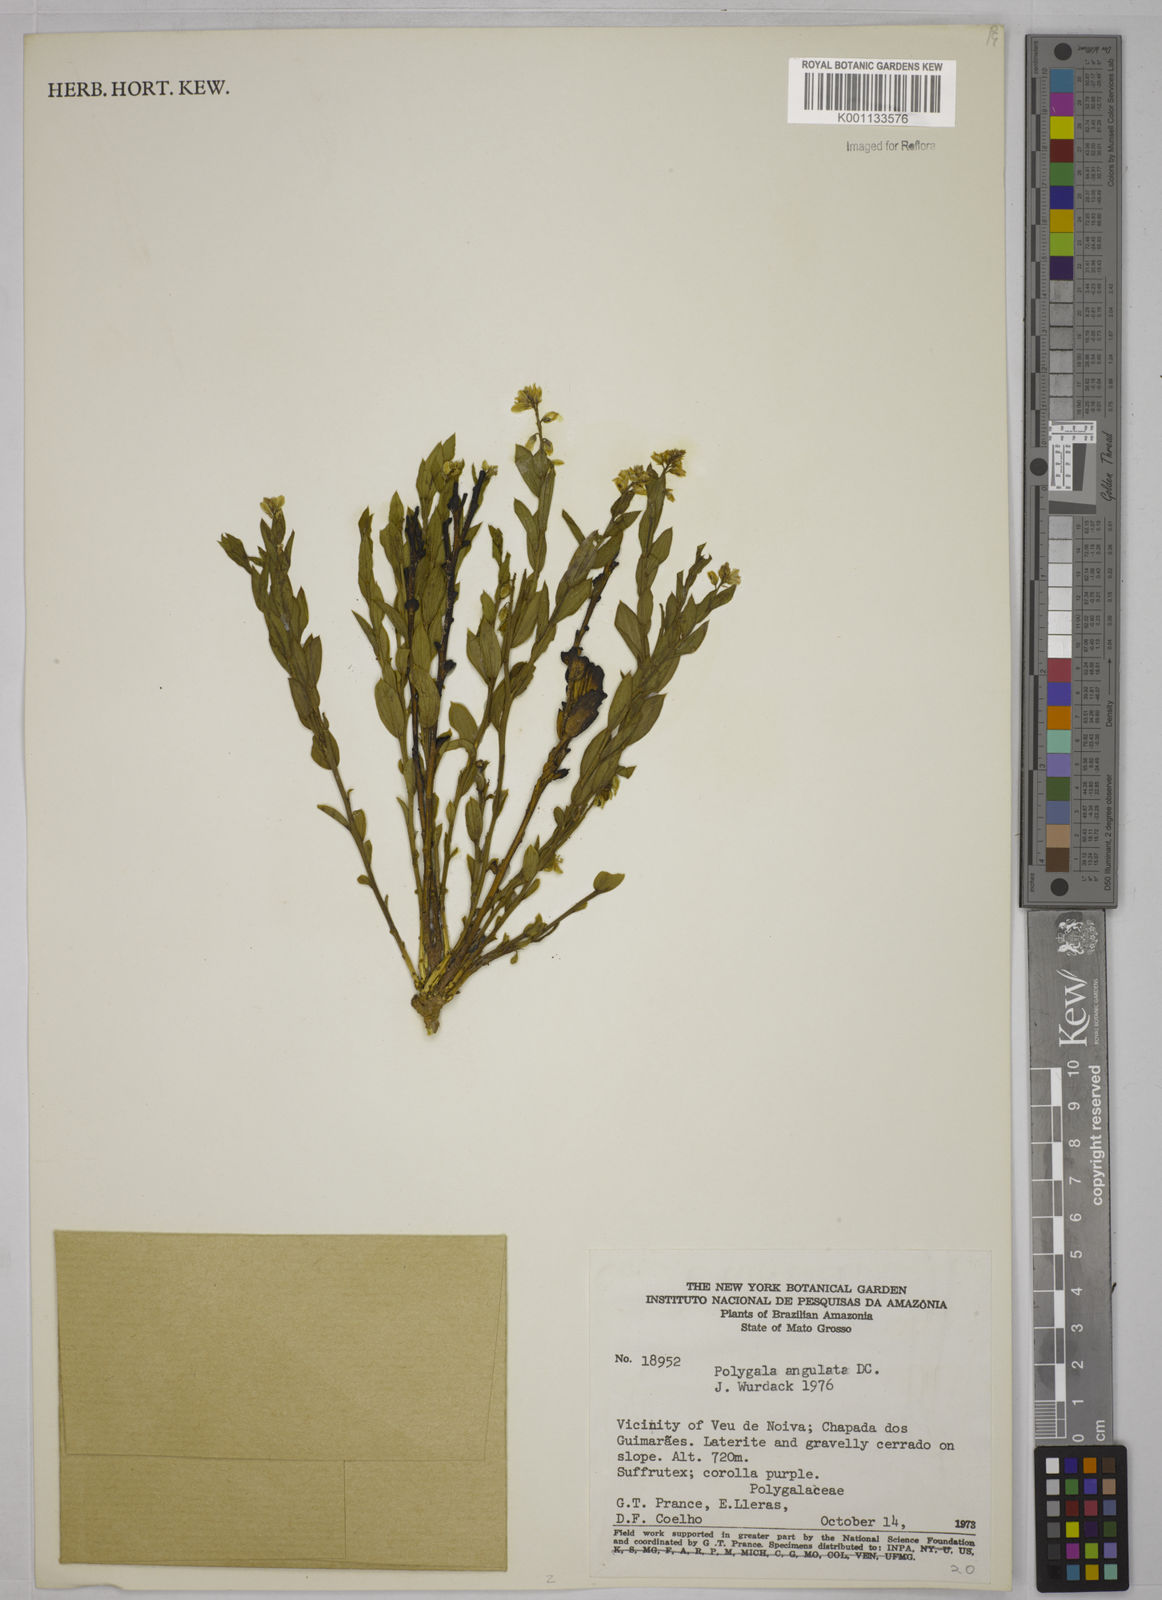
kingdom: Plantae
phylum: Tracheophyta
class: Magnoliopsida
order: Fabales
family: Polygalaceae
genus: Polygala
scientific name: Polygala poaya
